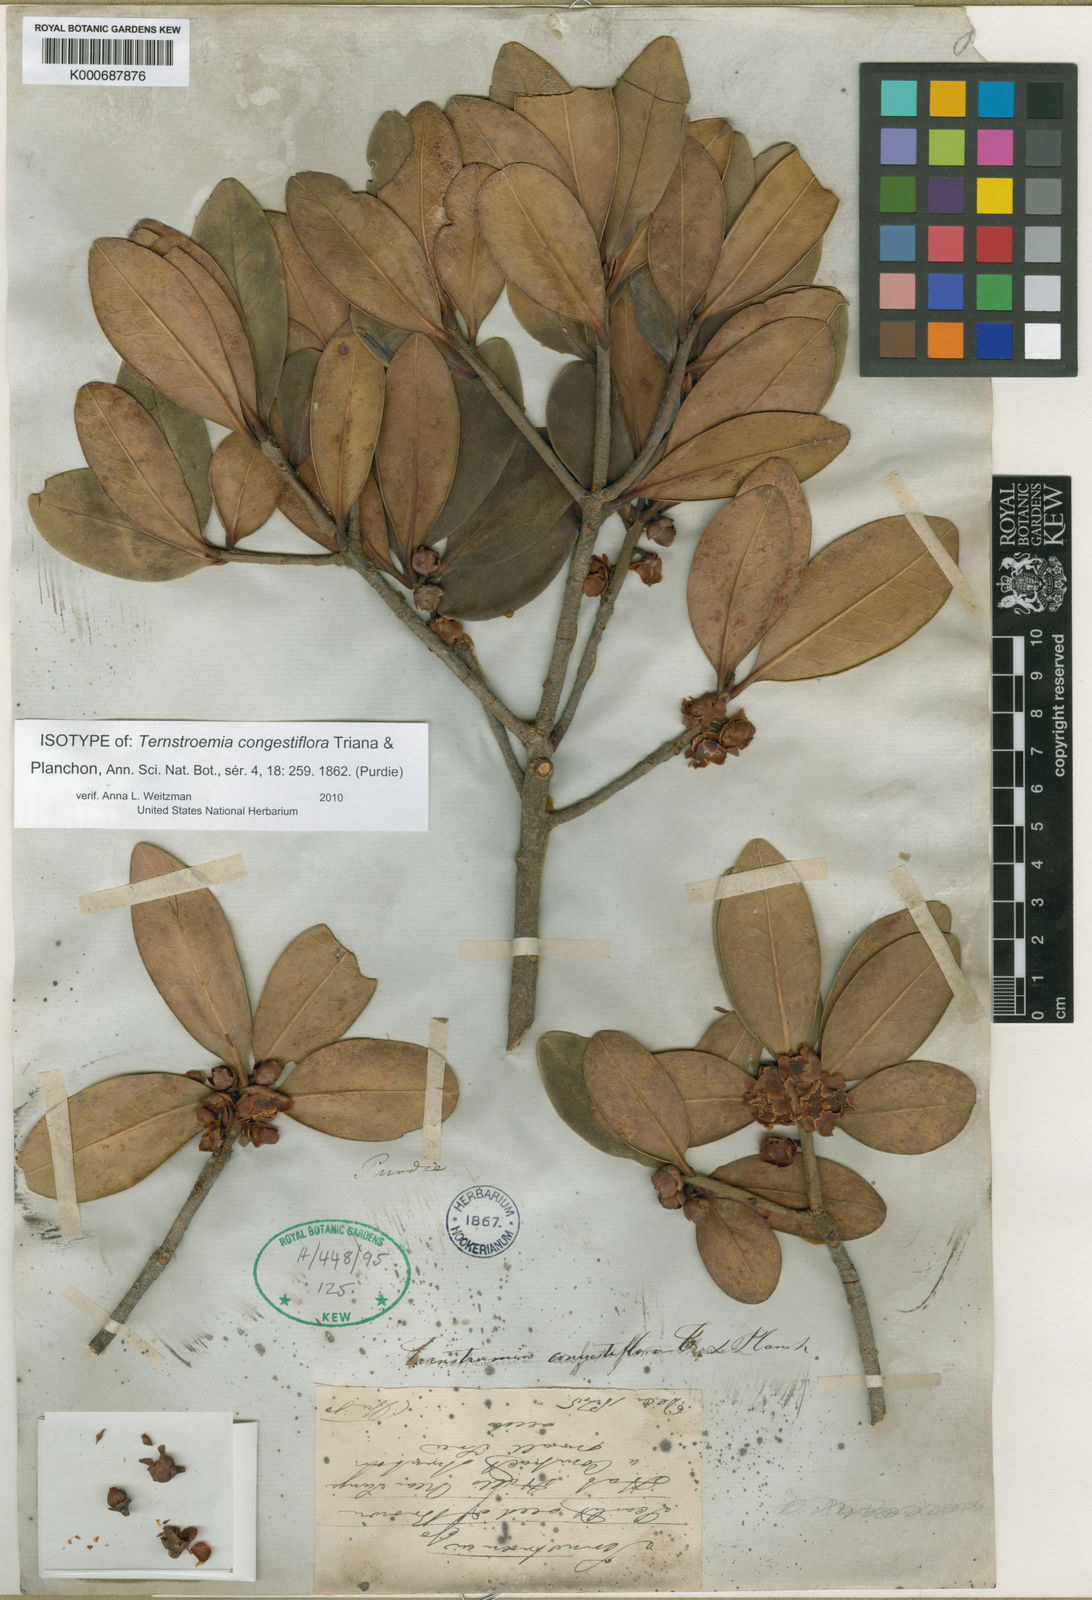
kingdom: Plantae
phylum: Tracheophyta
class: Magnoliopsida
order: Ericales
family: Pentaphylacaceae
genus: Ternstroemia
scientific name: Ternstroemia congestiflora
